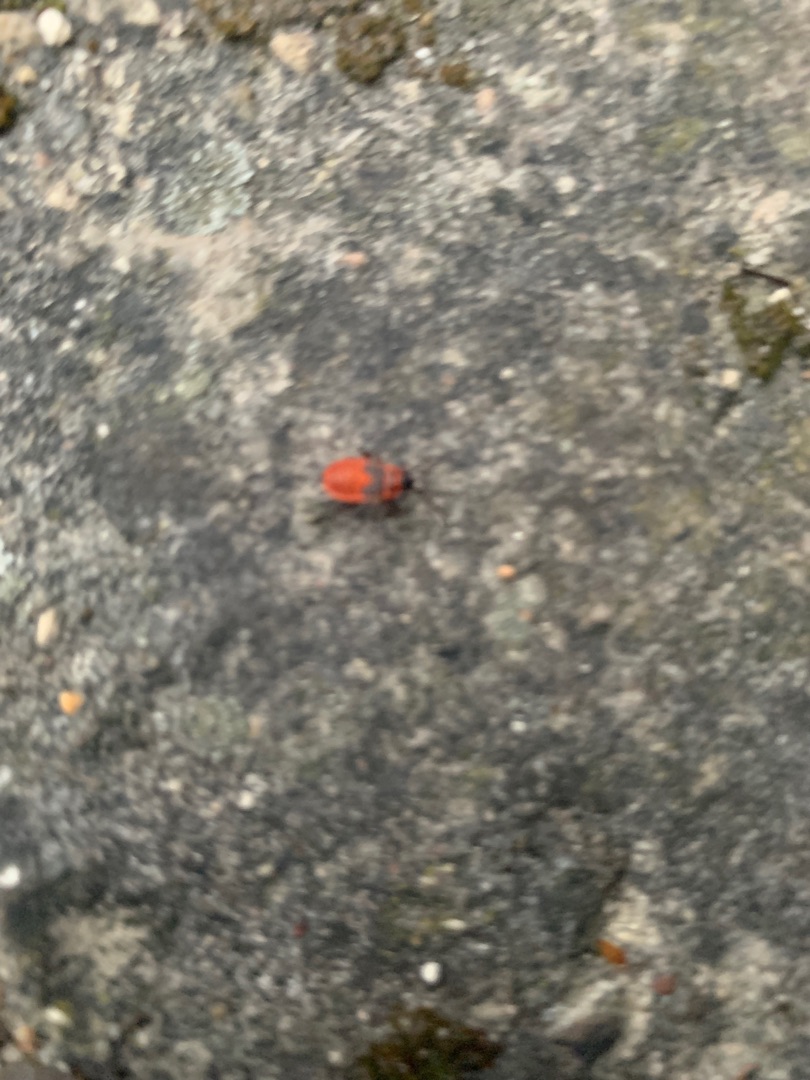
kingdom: Animalia
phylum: Arthropoda
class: Insecta
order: Hemiptera
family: Pyrrhocoridae
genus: Pyrrhocoris
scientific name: Pyrrhocoris apterus
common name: Ildtæge
